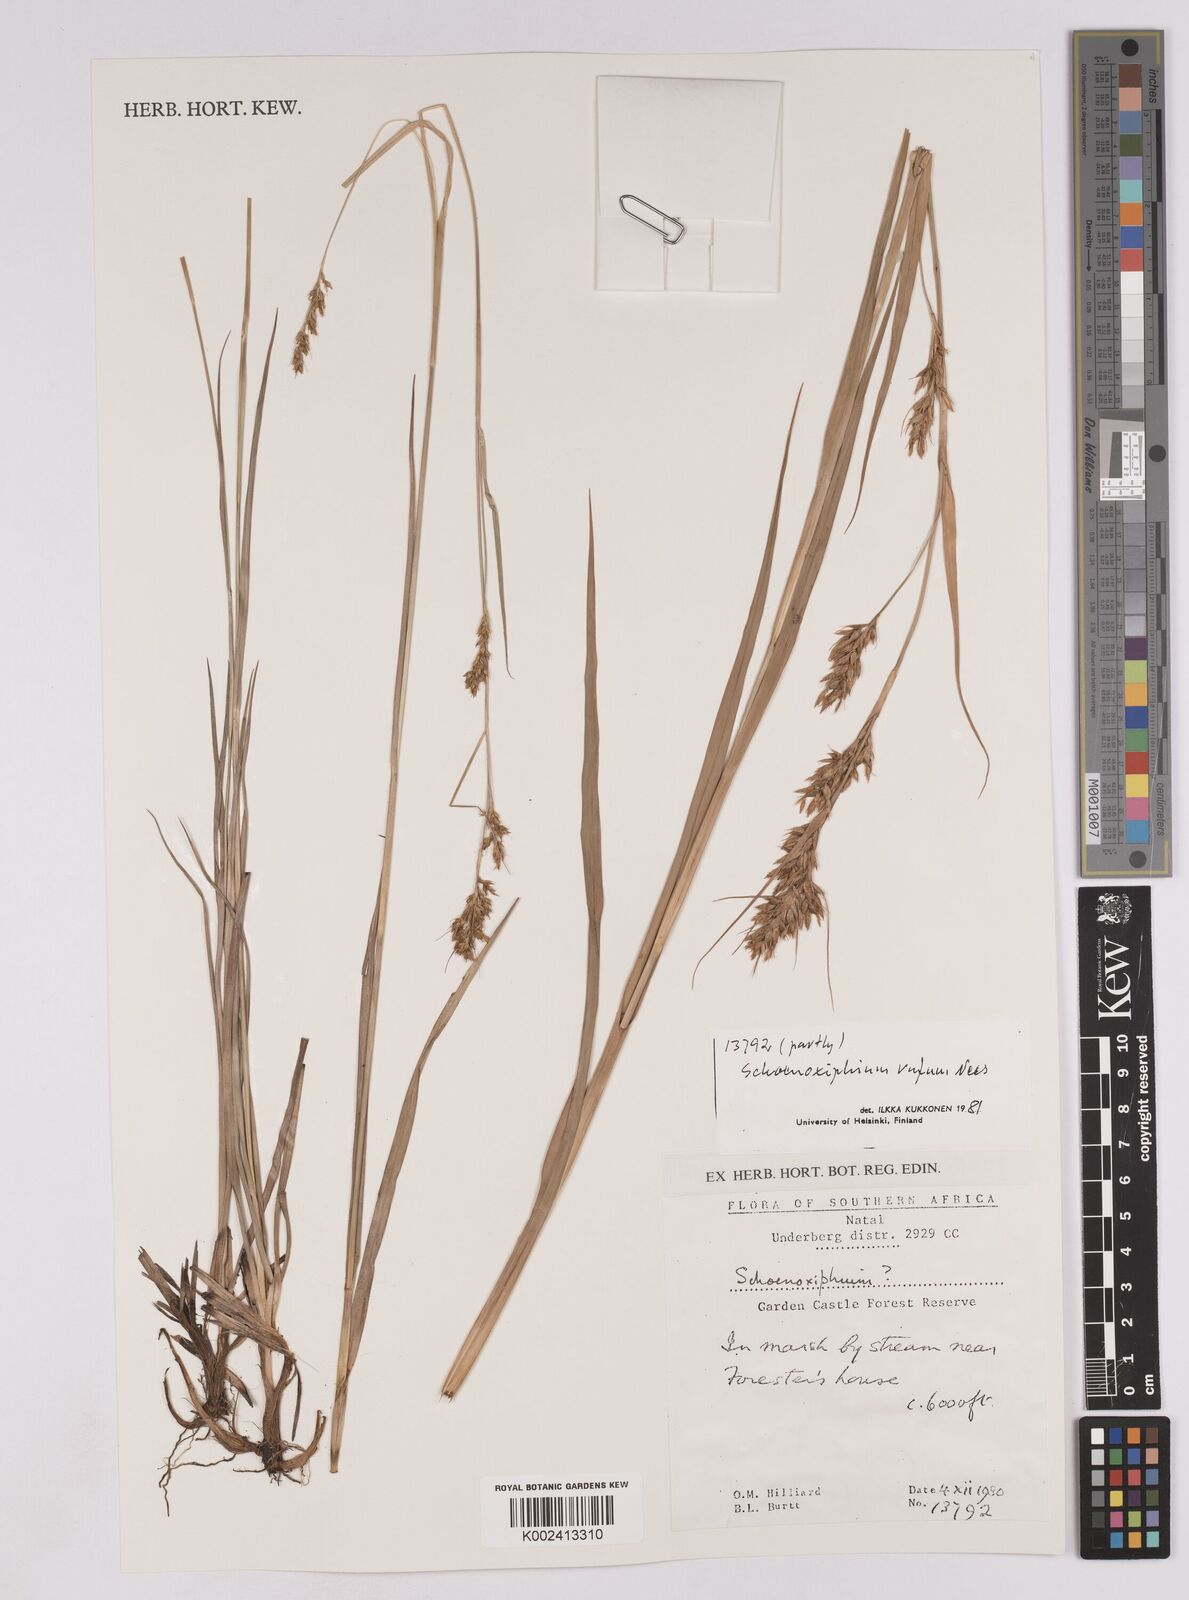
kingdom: Plantae
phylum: Tracheophyta
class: Liliopsida
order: Poales
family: Cyperaceae
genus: Carex
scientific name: Carex
